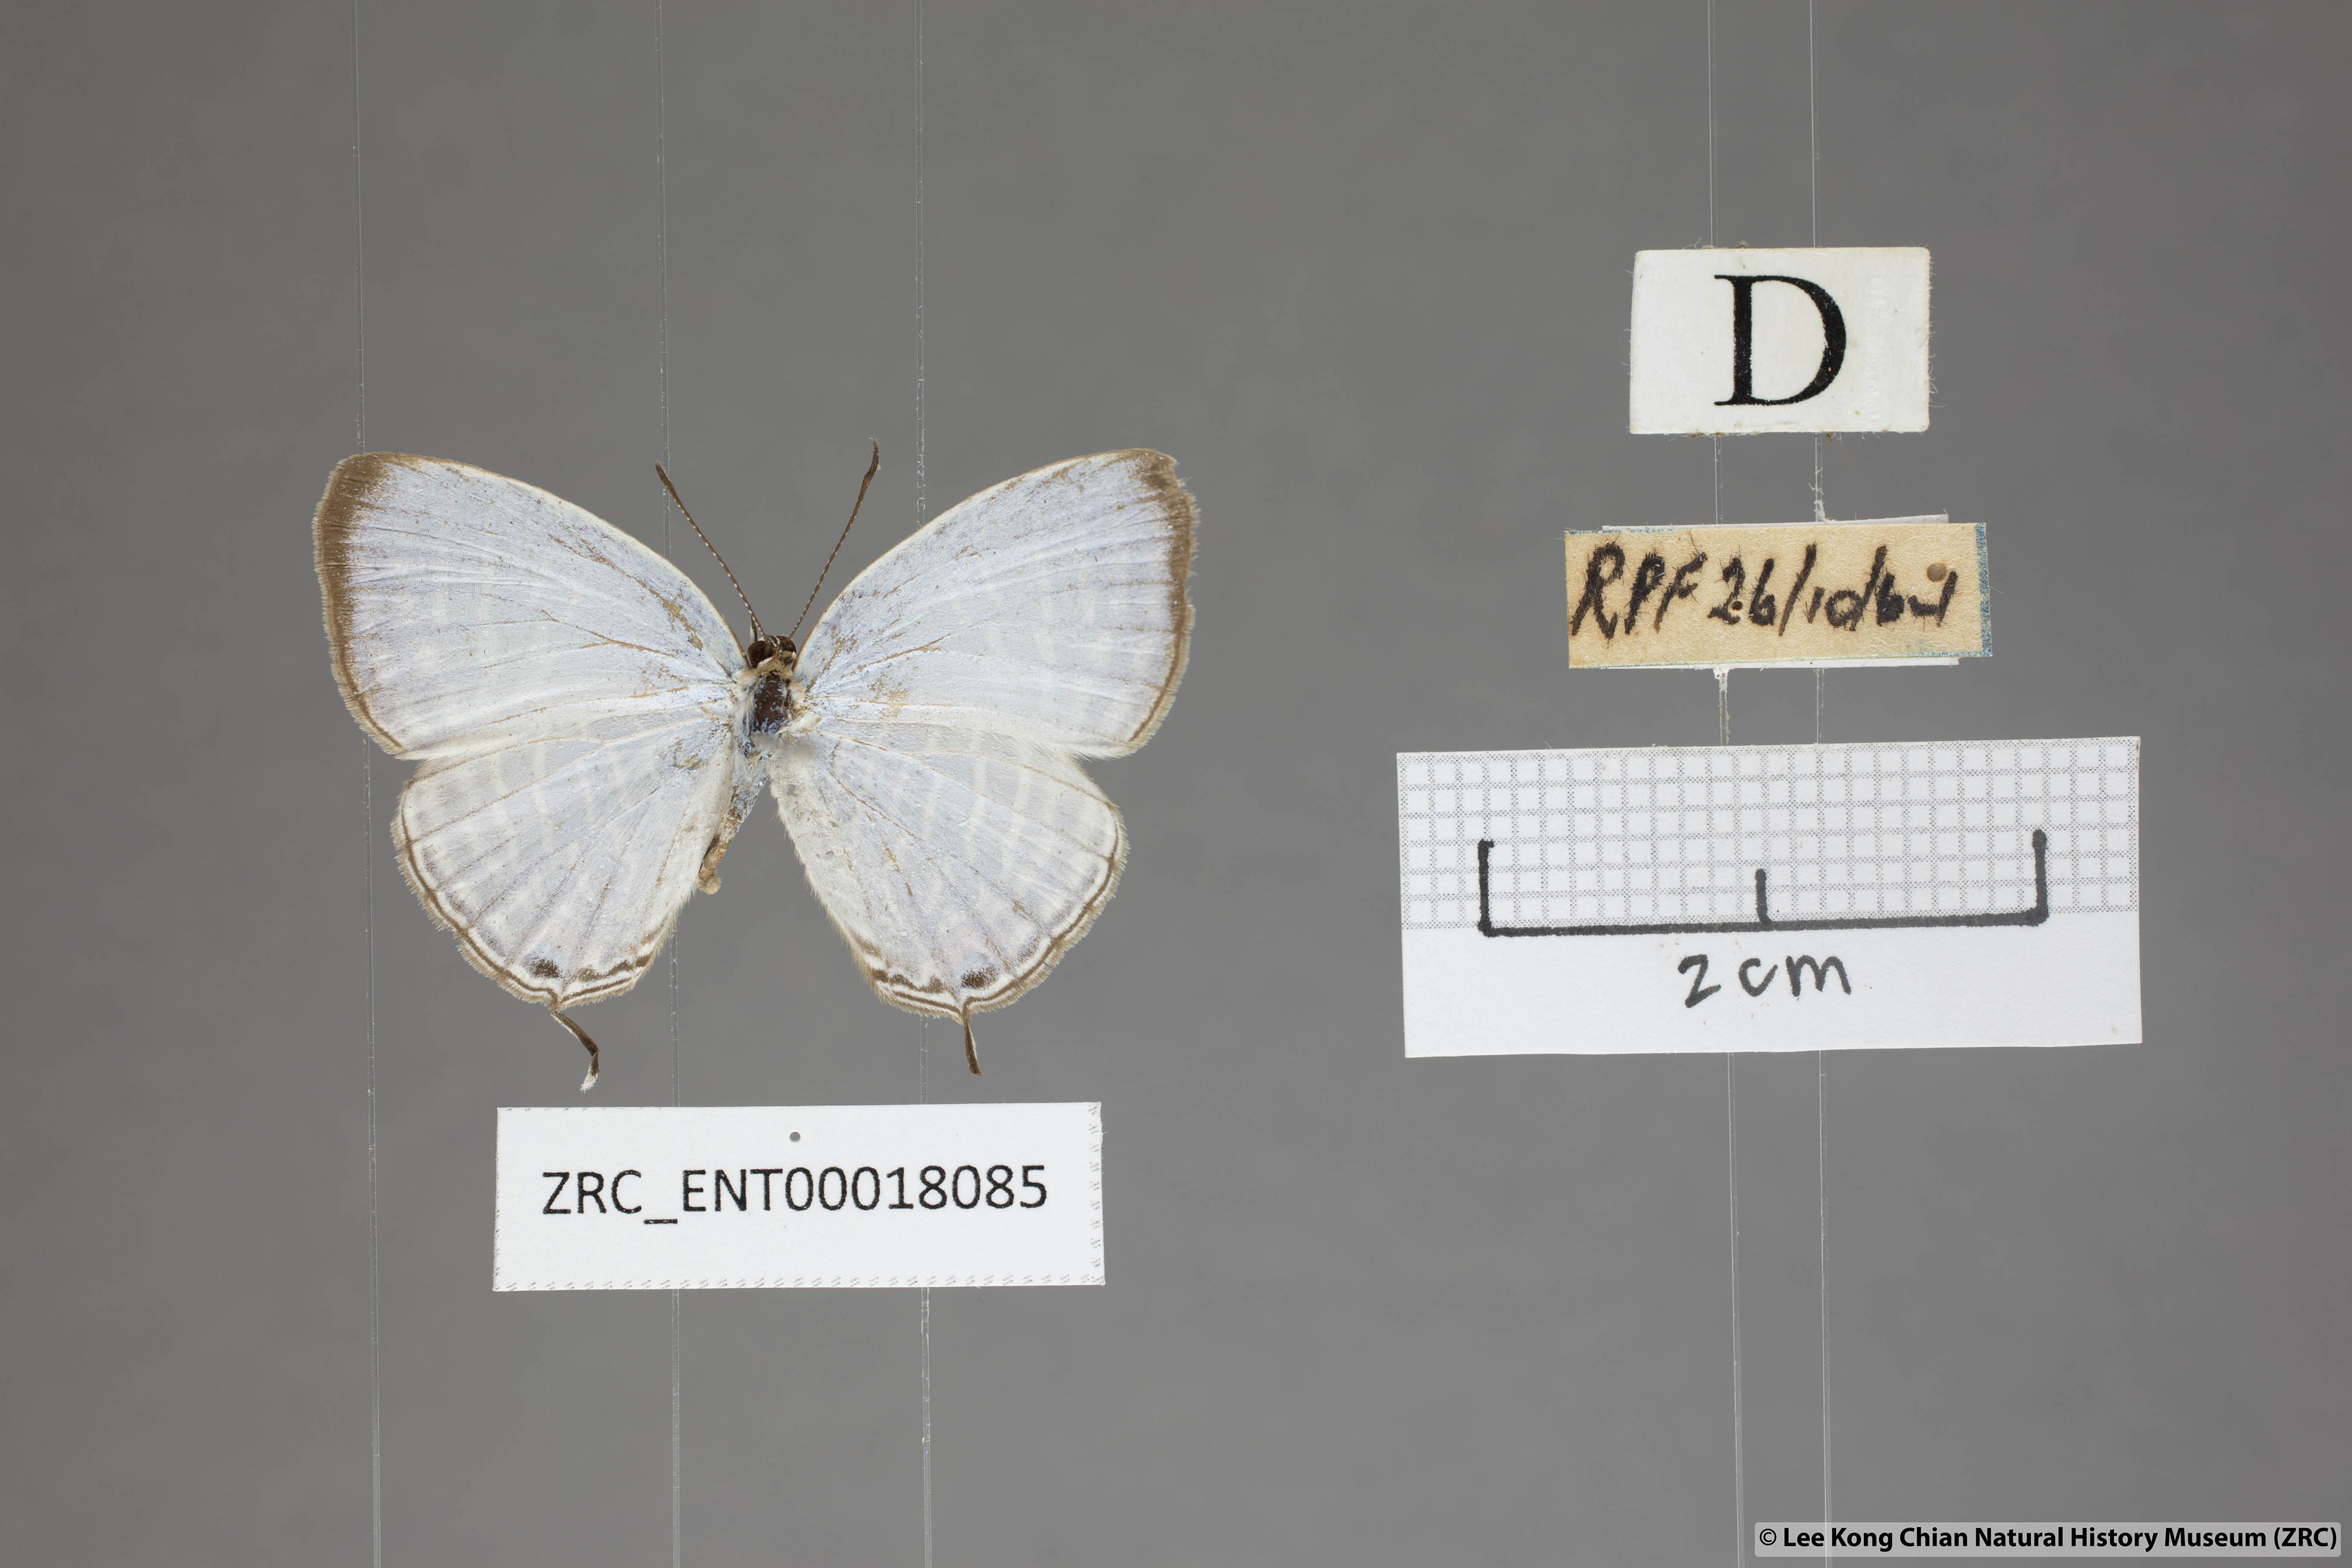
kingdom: Animalia
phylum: Arthropoda
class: Insecta
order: Lepidoptera
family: Lycaenidae
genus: Jamides
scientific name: Jamides celeno
